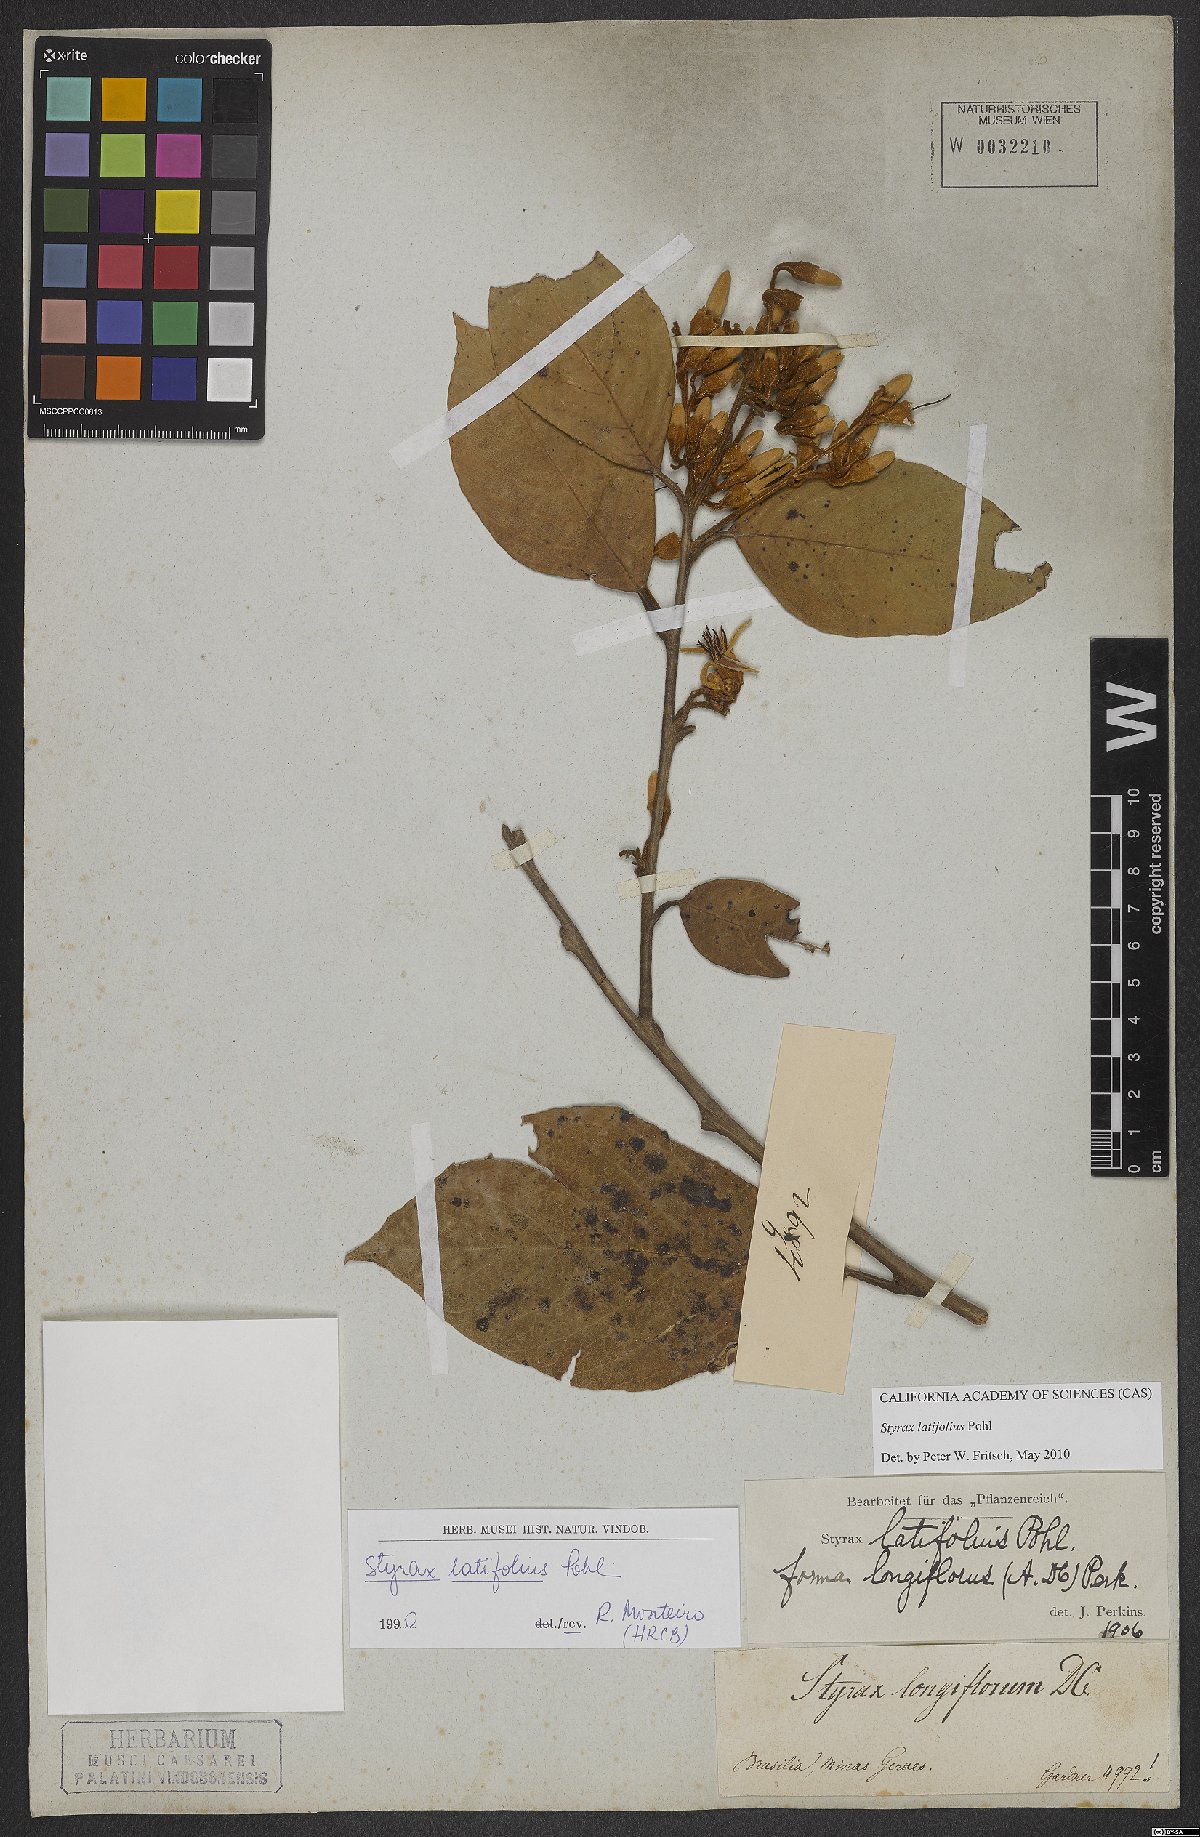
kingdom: Plantae
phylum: Tracheophyta
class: Magnoliopsida
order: Ericales
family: Styracaceae
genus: Styrax
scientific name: Styrax latifolius
